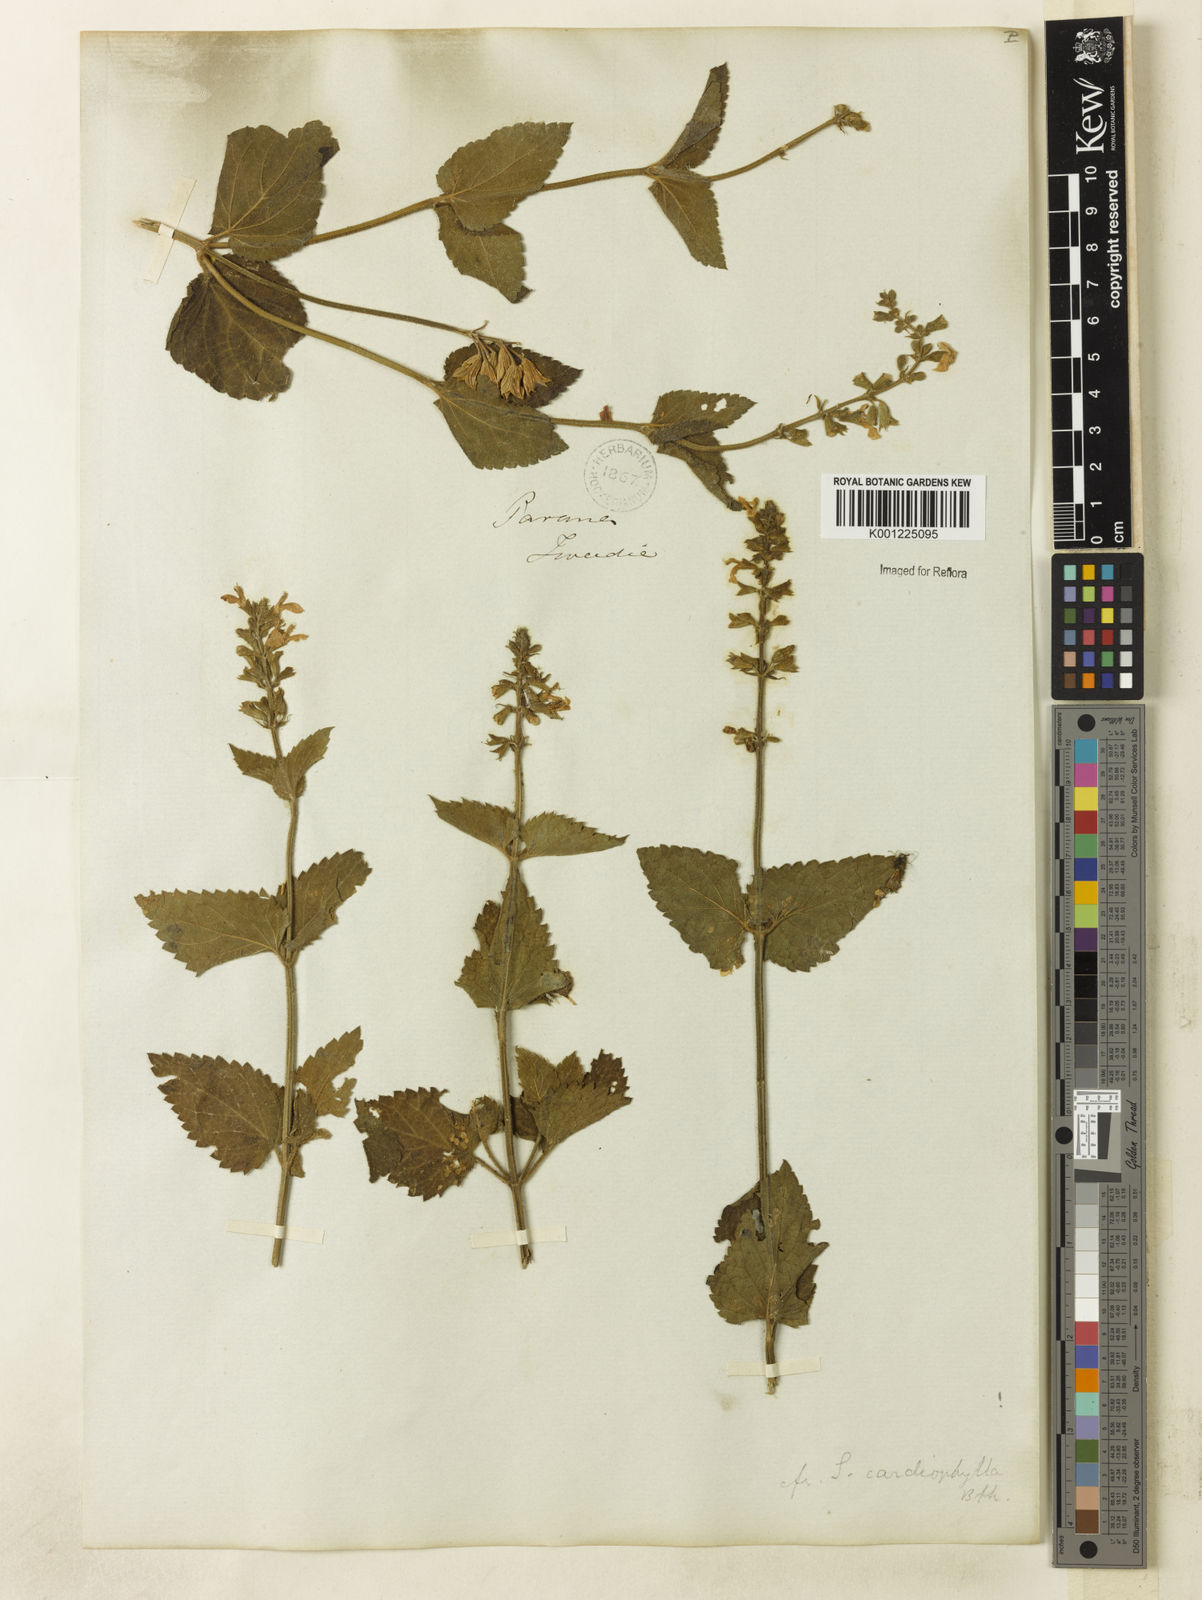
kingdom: Plantae
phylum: Tracheophyta
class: Magnoliopsida
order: Lamiales
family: Lamiaceae
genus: Salvia
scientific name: Salvia cardiophylla
